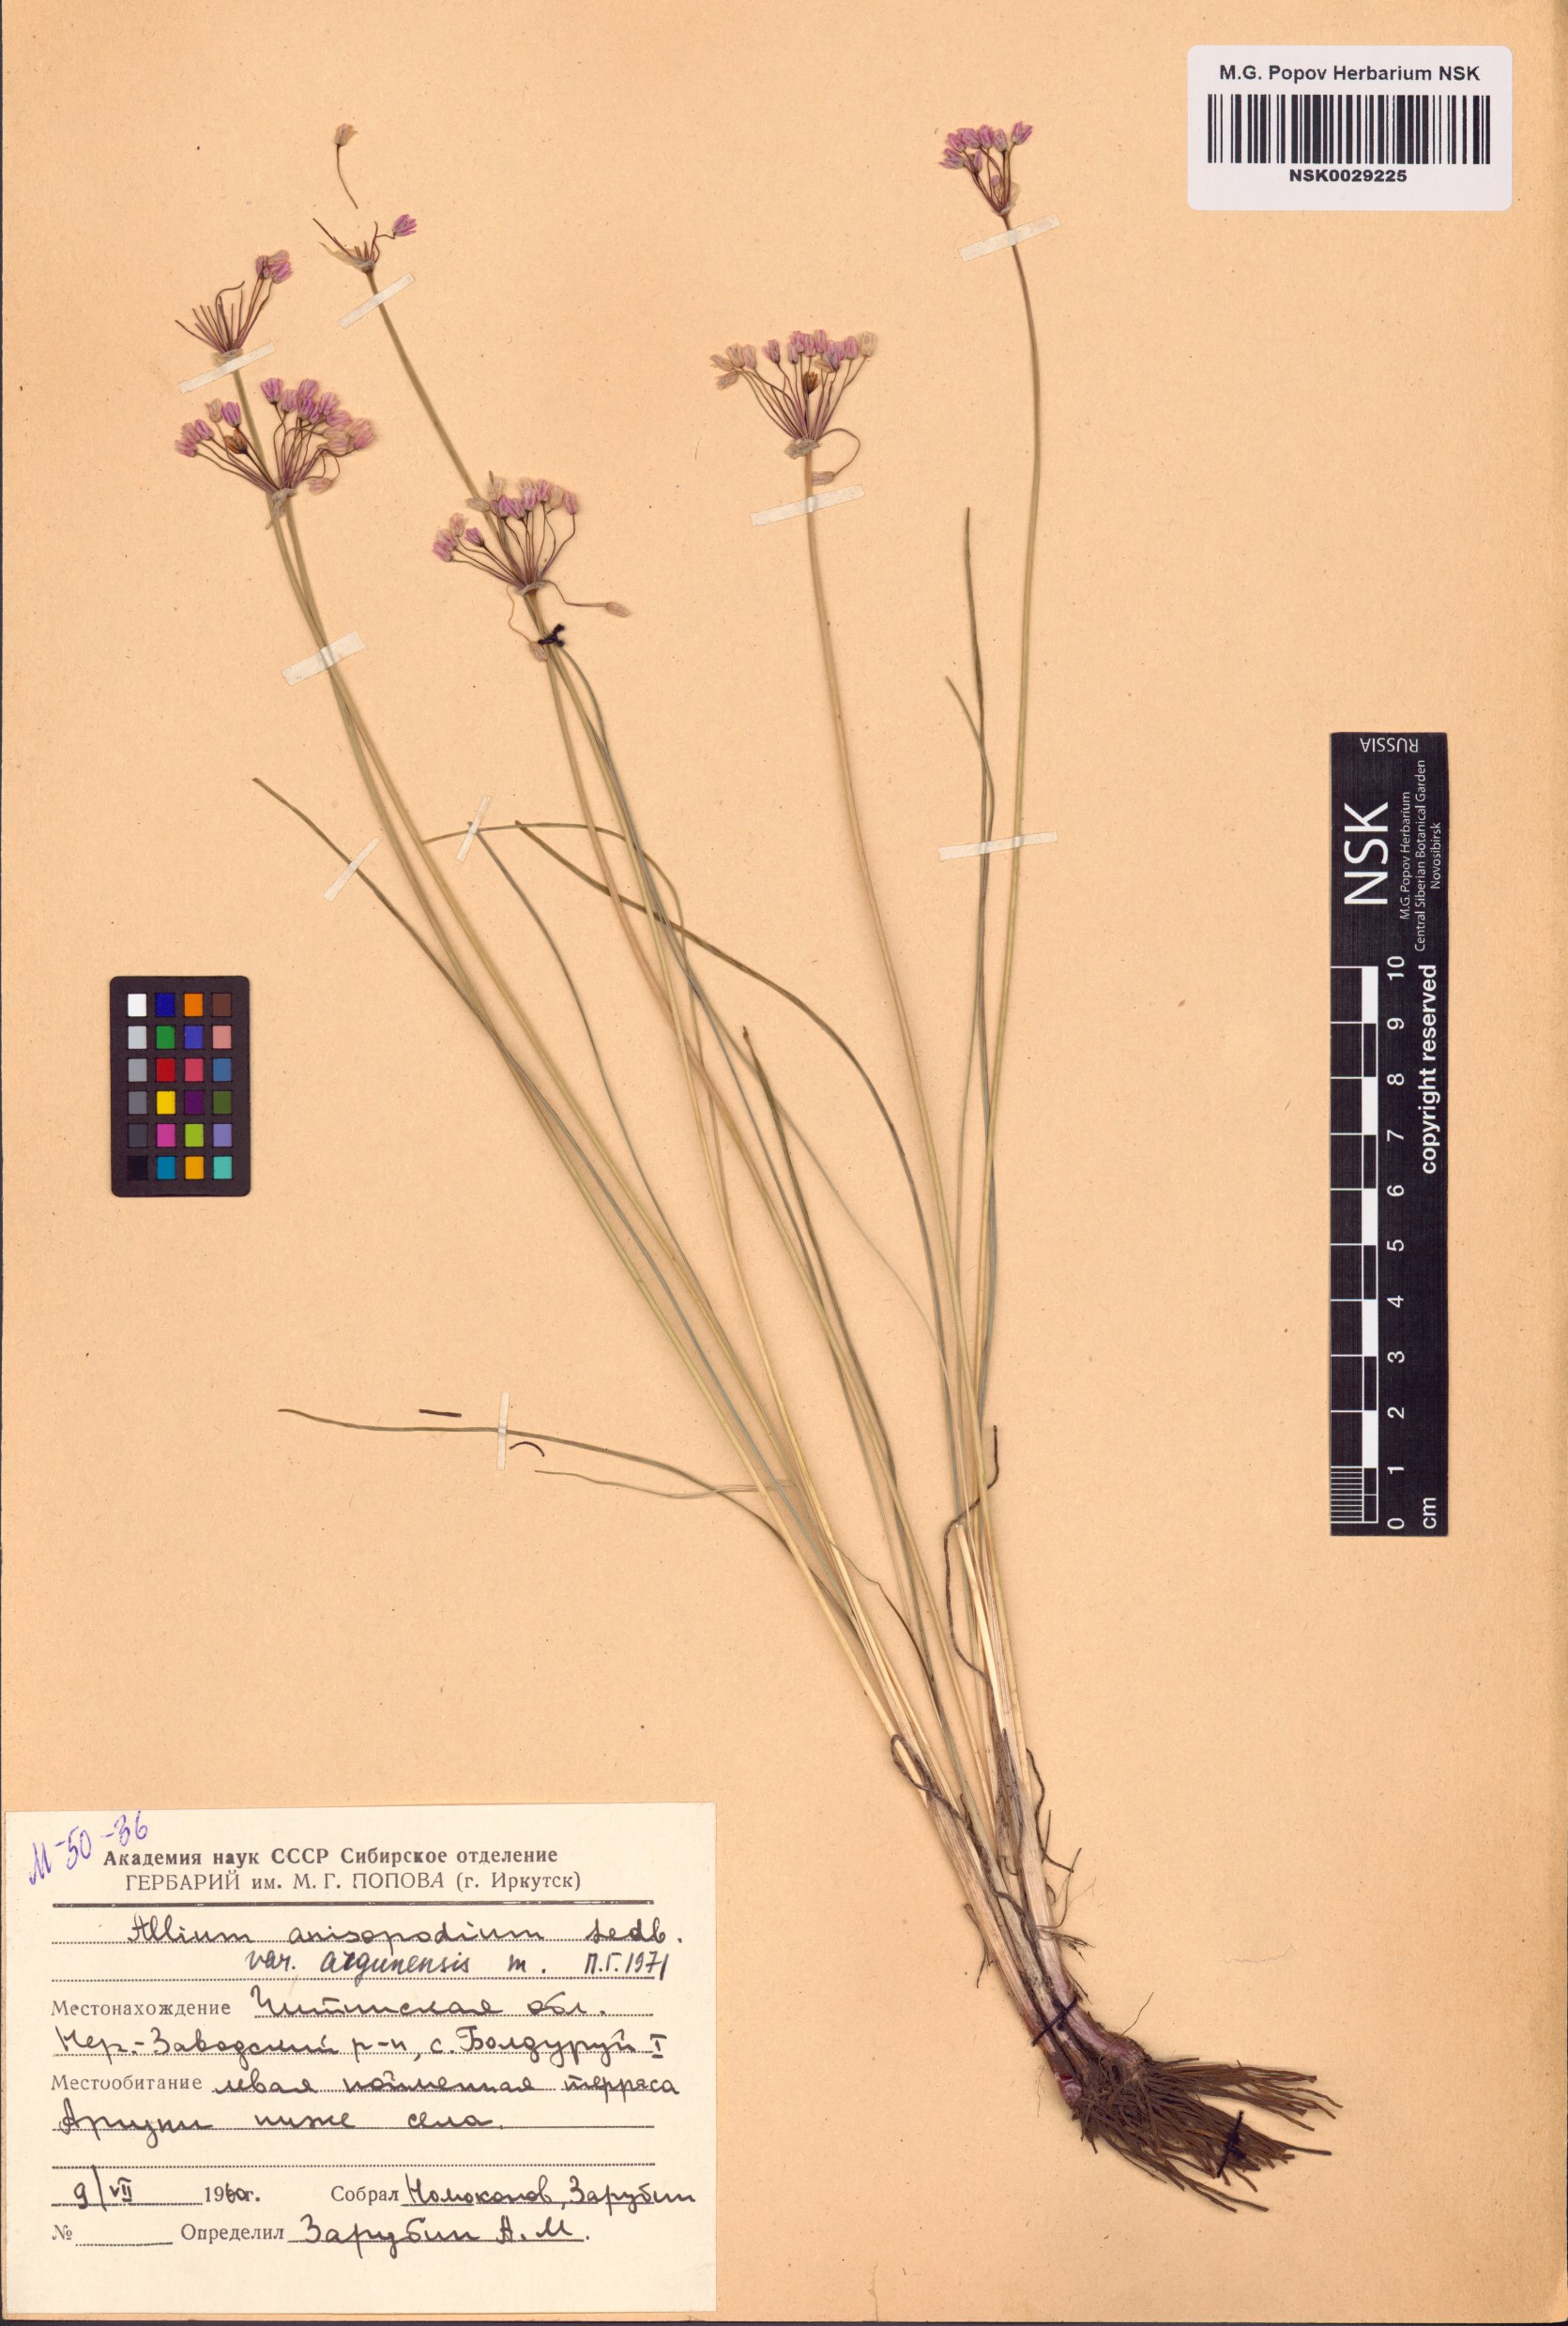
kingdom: Plantae
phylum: Tracheophyta
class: Liliopsida
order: Asparagales
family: Amaryllidaceae
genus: Allium
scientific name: Allium anisopodium
